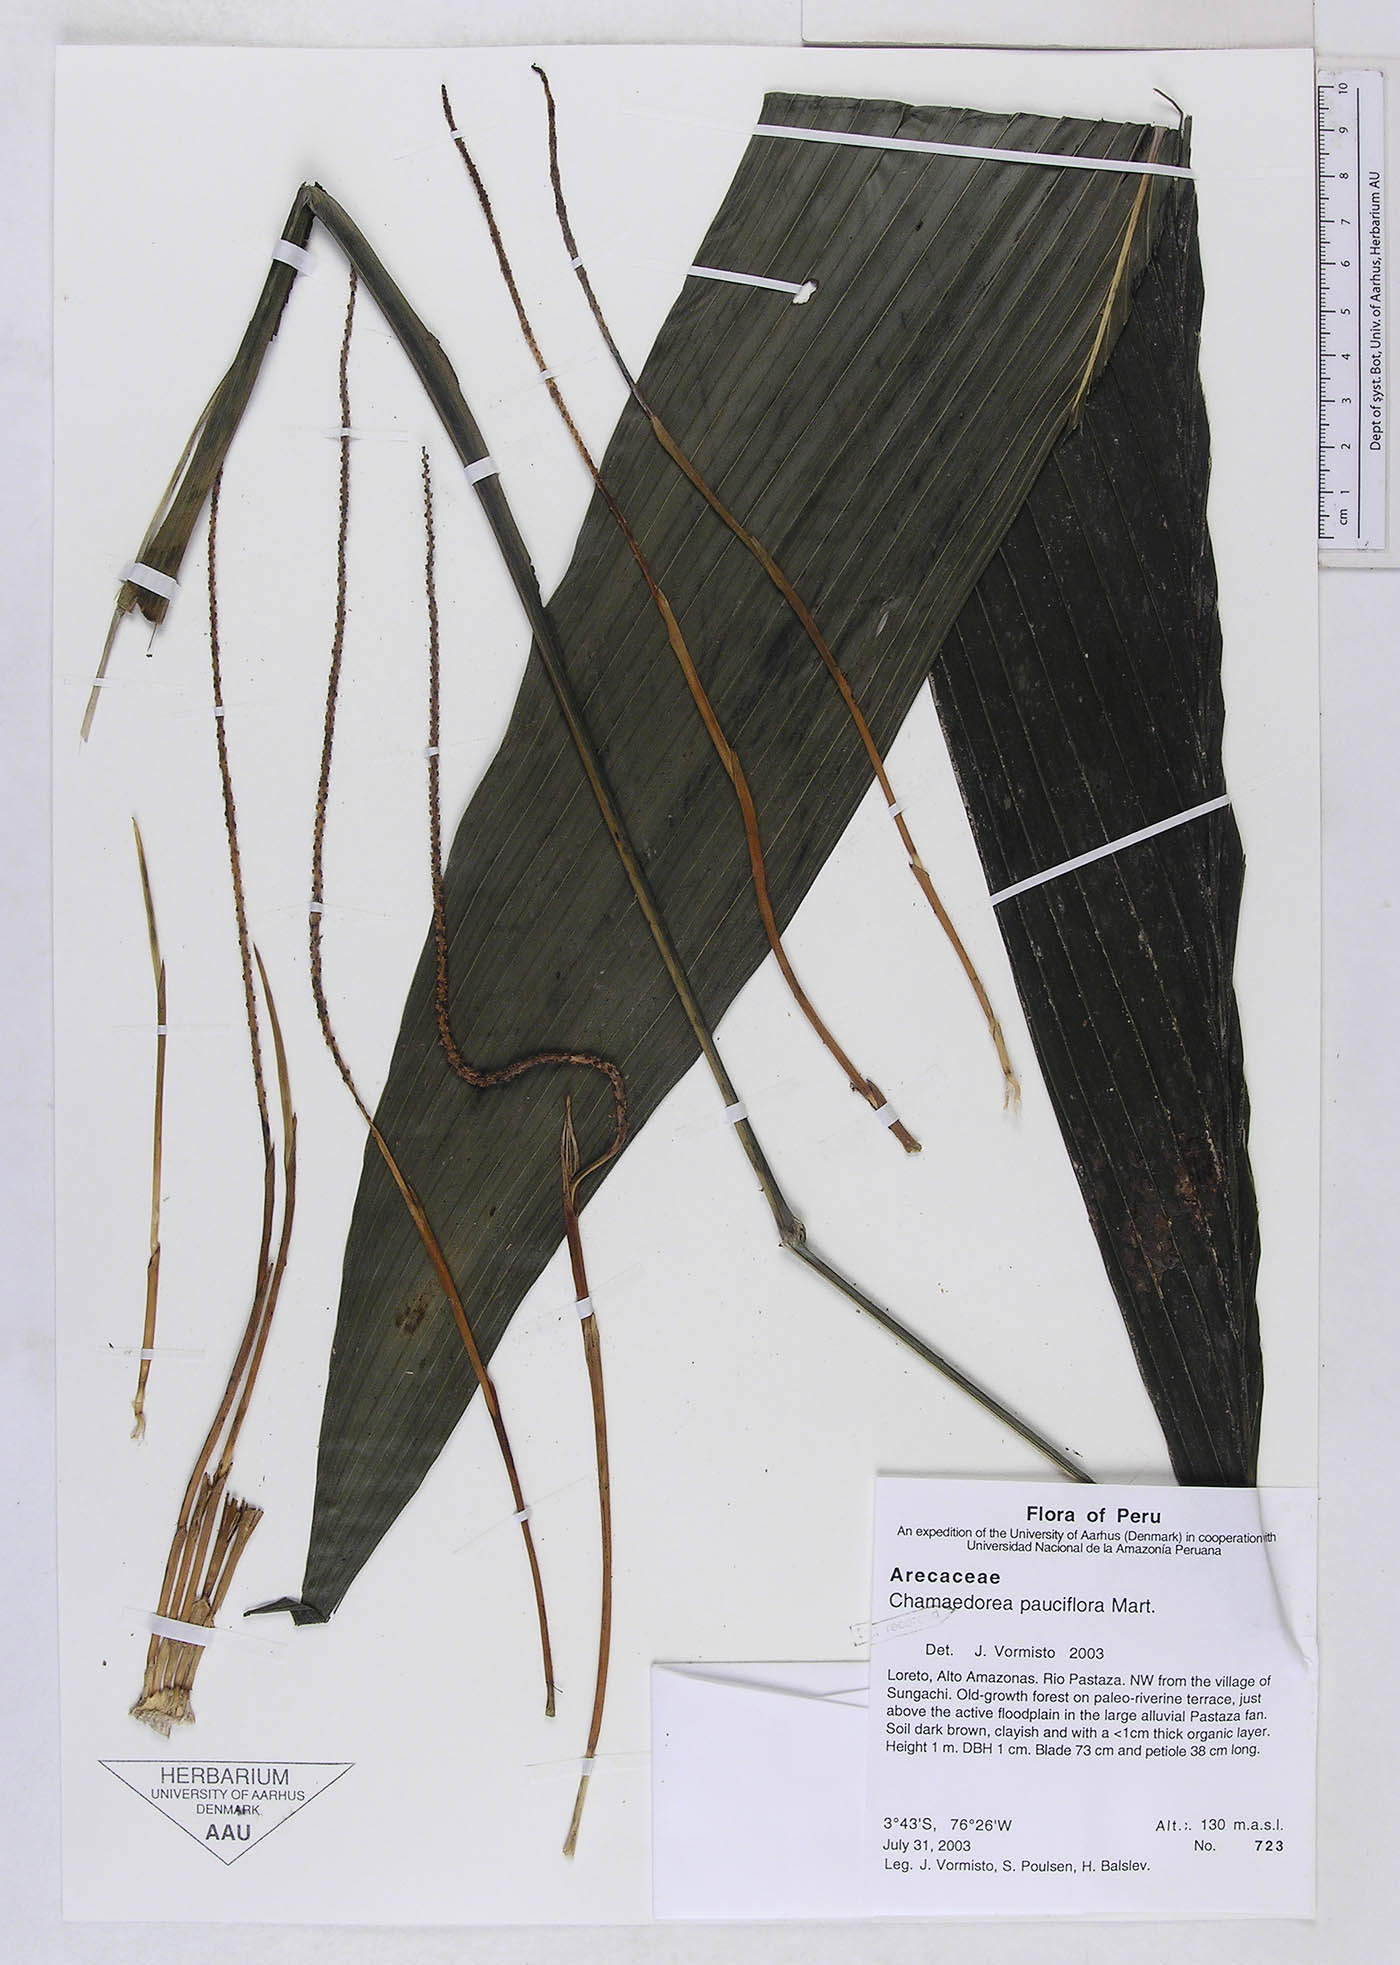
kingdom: Plantae
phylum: Tracheophyta
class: Liliopsida
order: Arecales
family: Arecaceae
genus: Chamaedorea
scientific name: Chamaedorea pauciflora
